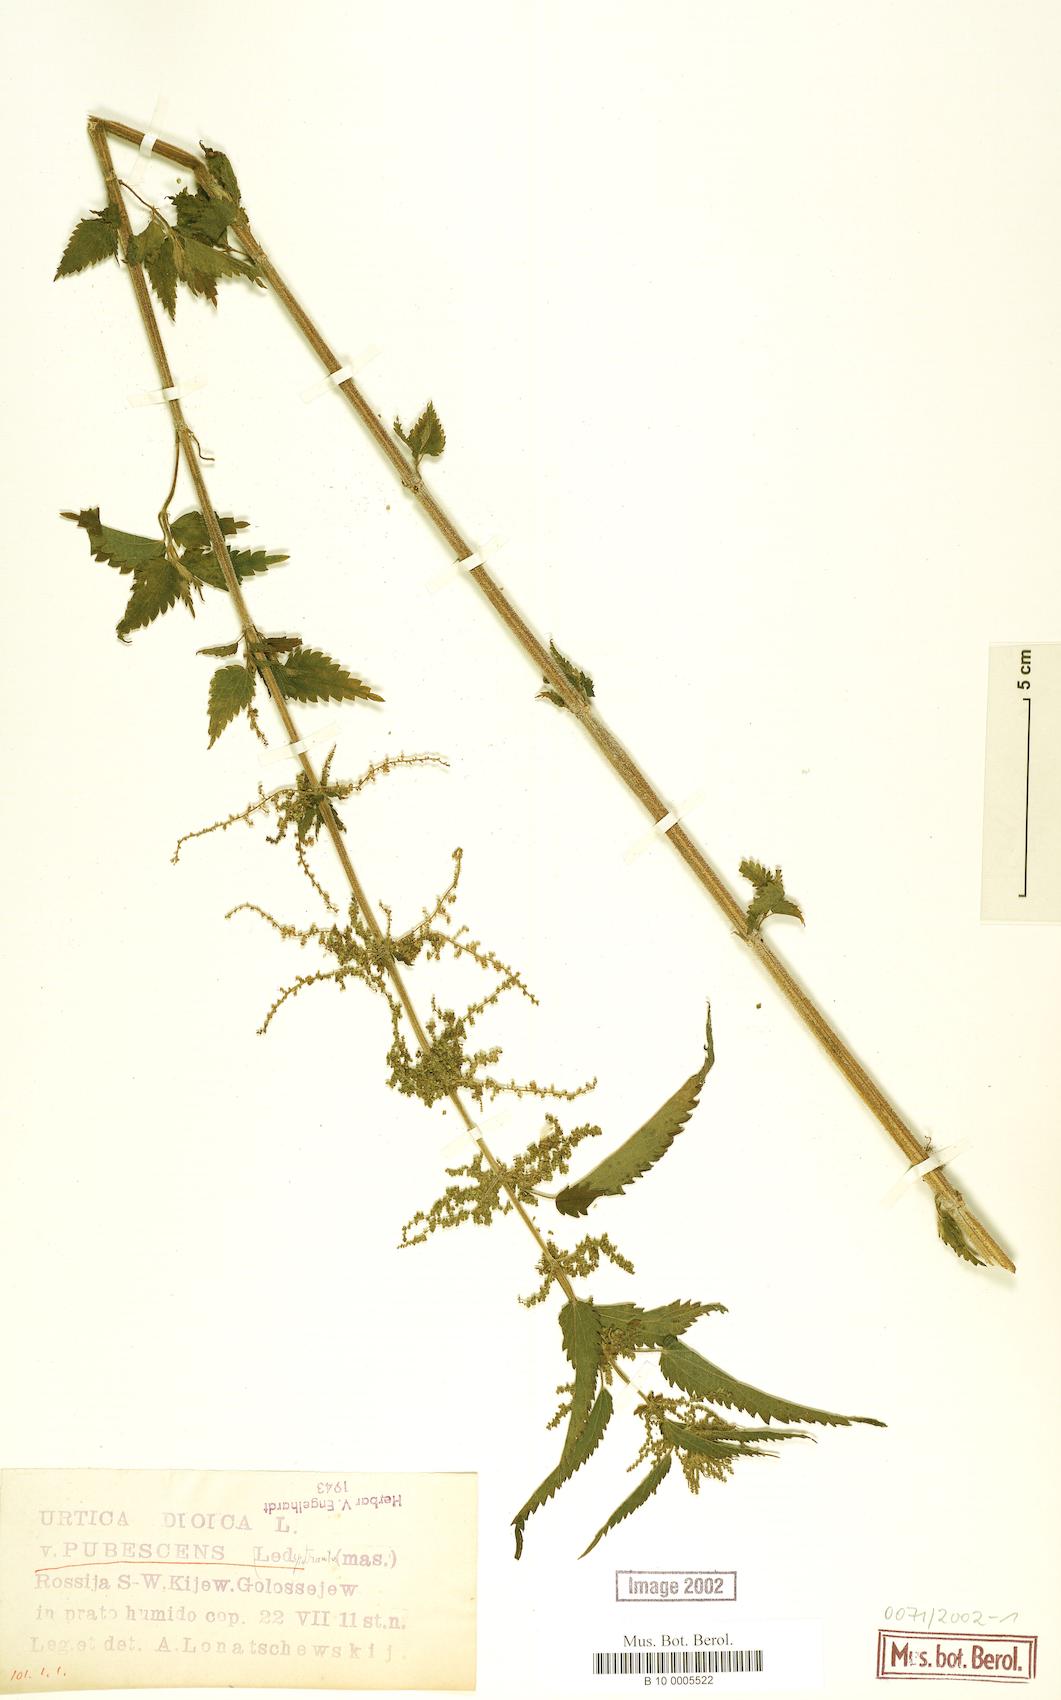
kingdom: Plantae
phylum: Tracheophyta
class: Magnoliopsida
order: Rosales
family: Urticaceae
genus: Urtica
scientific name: Urtica pubescens
